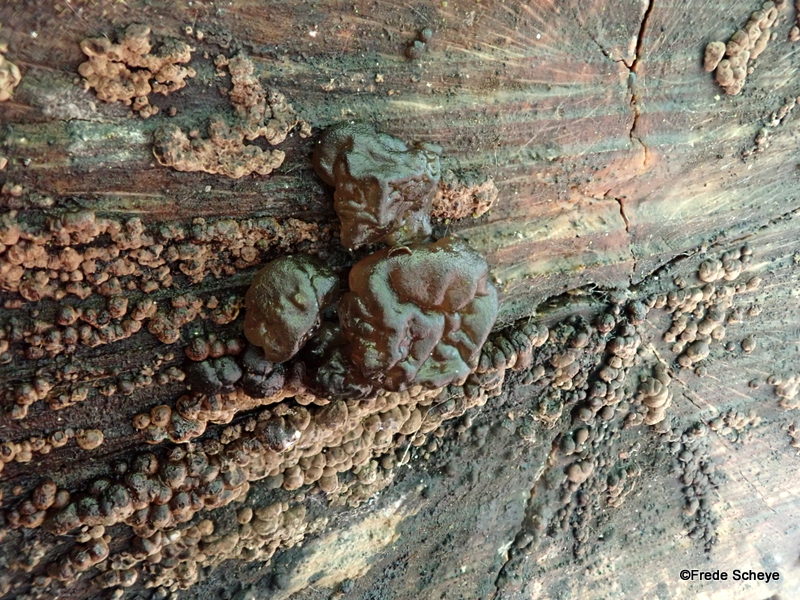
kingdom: Fungi
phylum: Basidiomycota
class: Agaricomycetes
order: Auriculariales
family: Auriculariaceae
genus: Exidia
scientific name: Exidia nigricans
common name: almindelig bævretop
